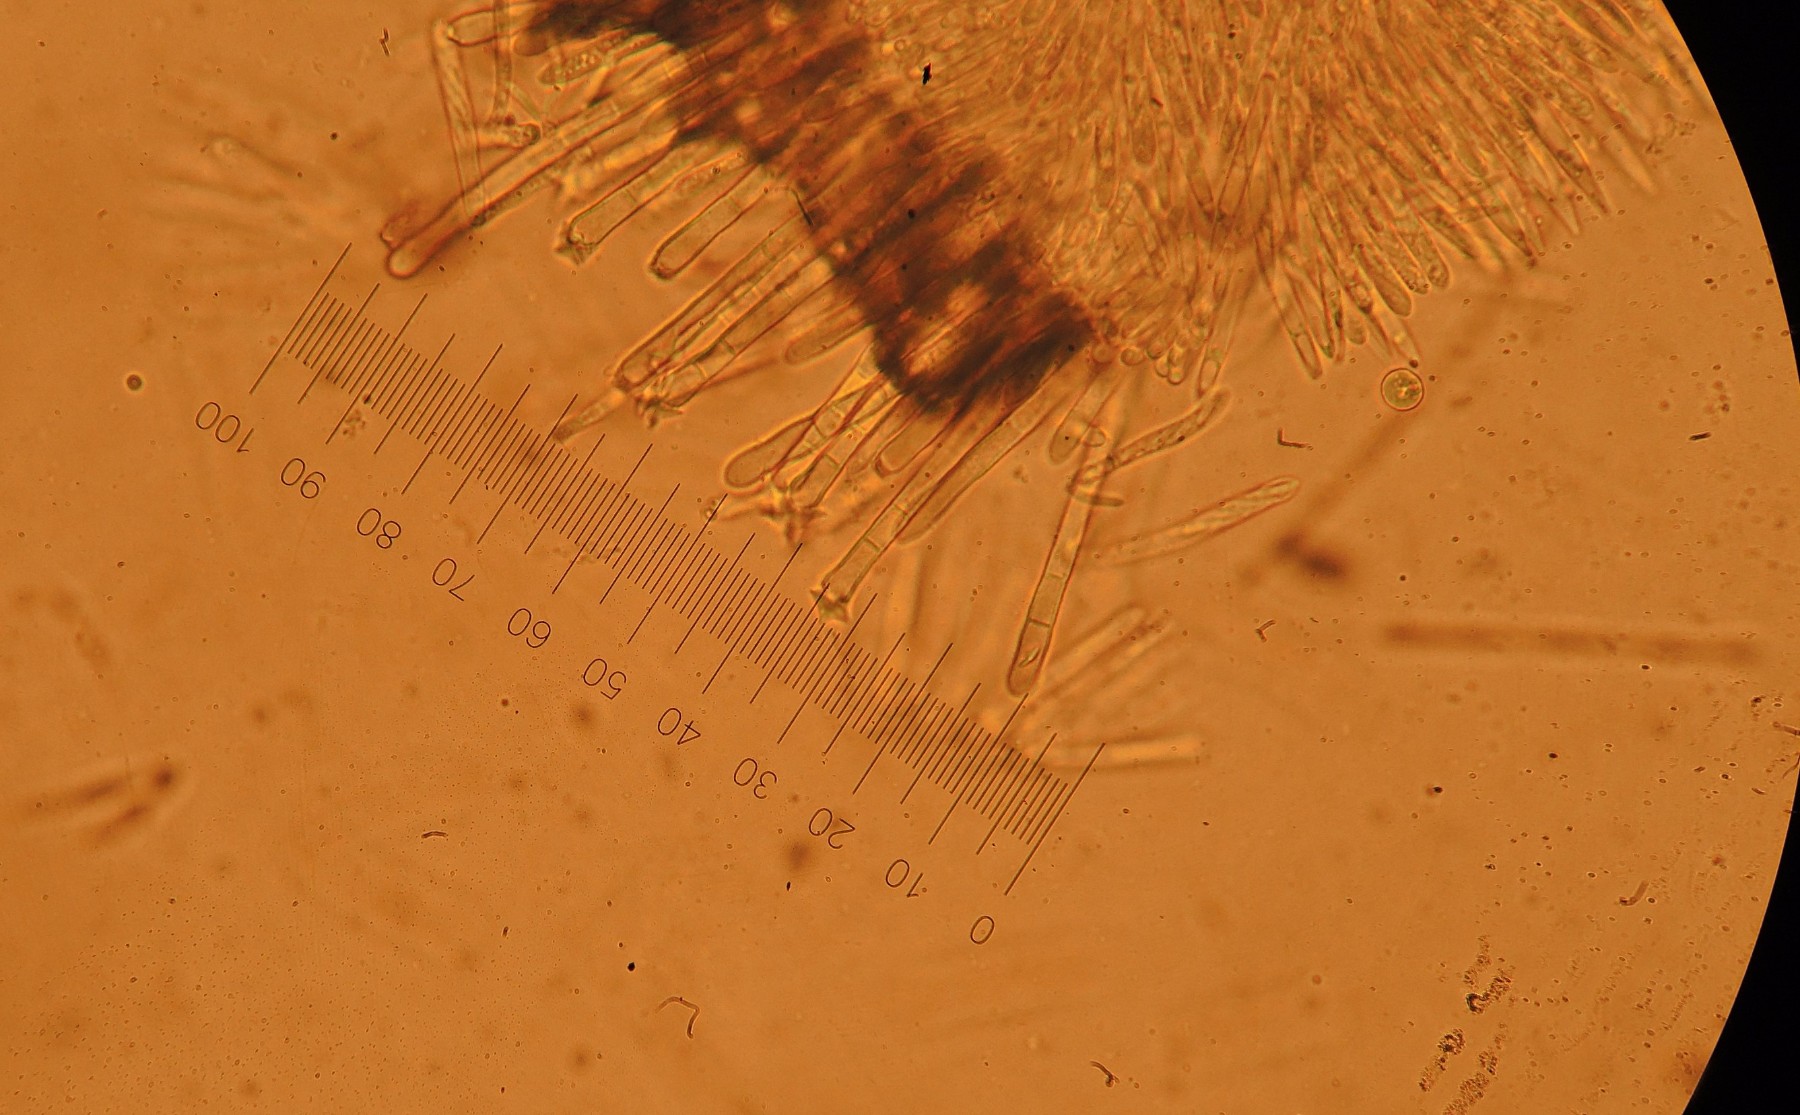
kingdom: Fungi
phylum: Ascomycota
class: Leotiomycetes
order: Helotiales
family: Lachnaceae
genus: Incrucipulum
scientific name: Incrucipulum sulphurellum
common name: pors-frynseskive
